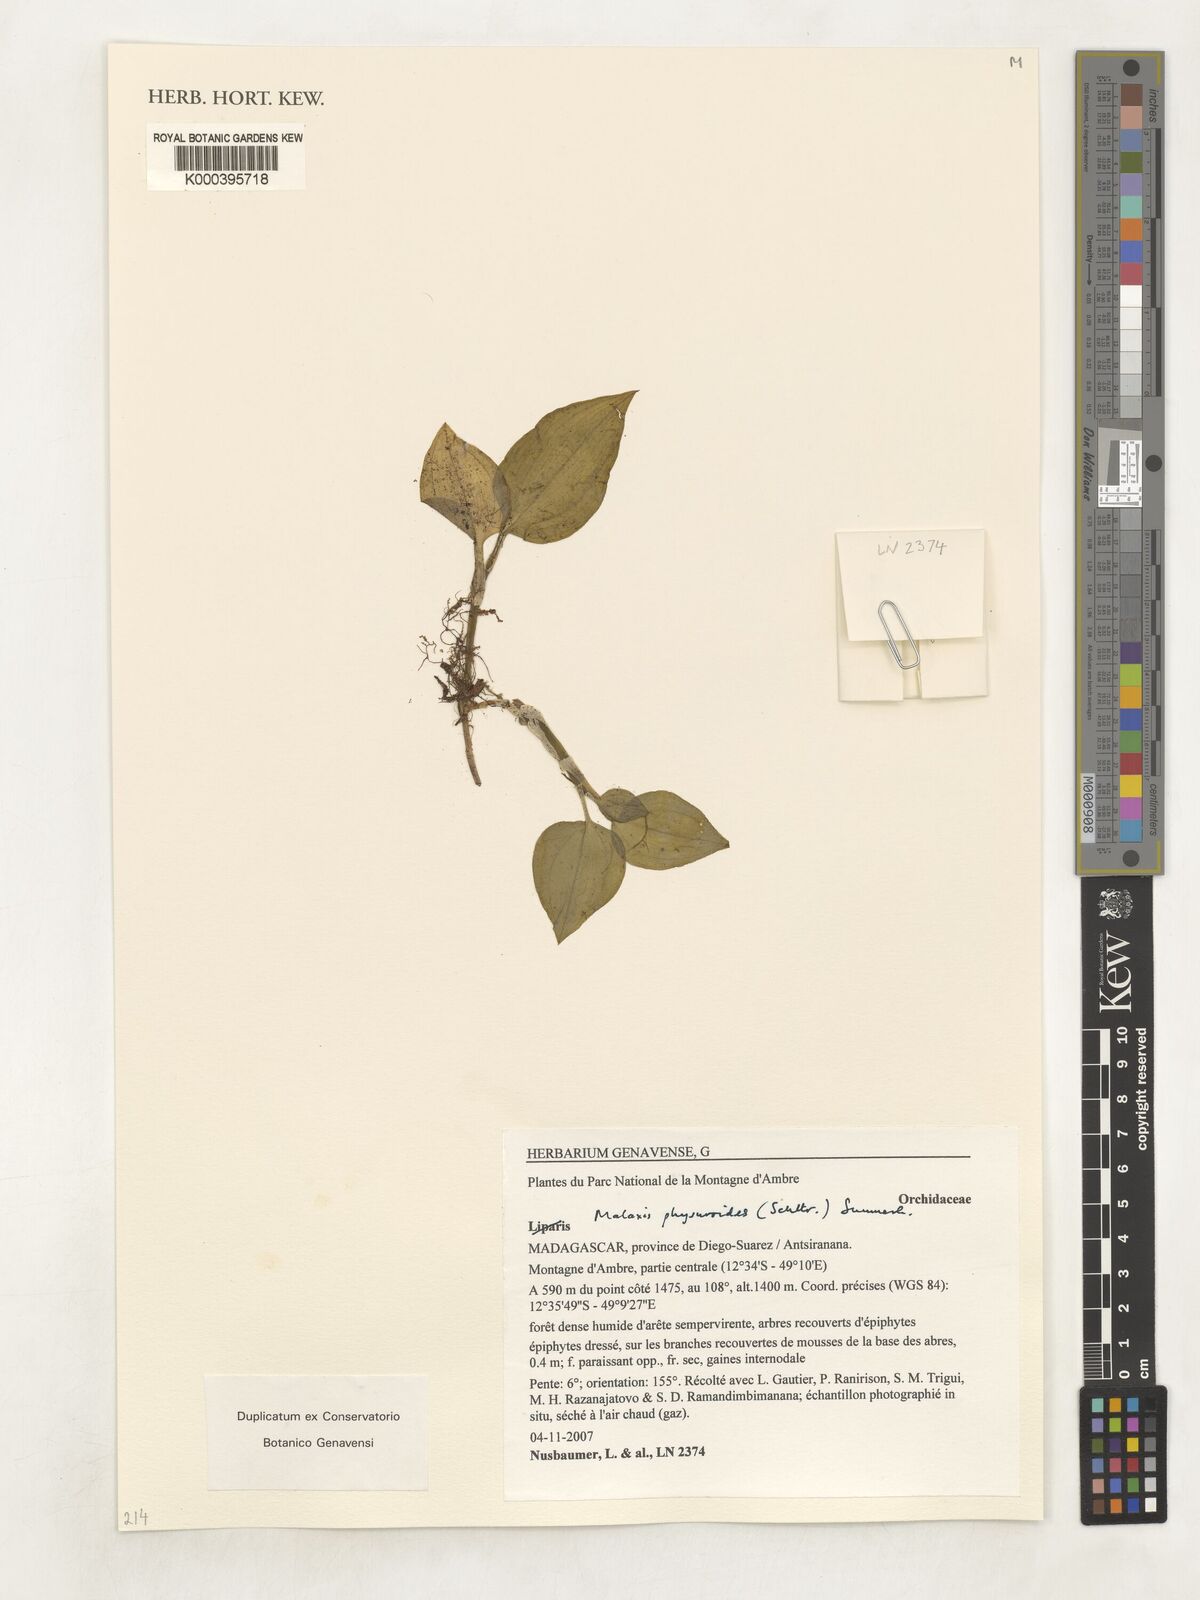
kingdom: Plantae
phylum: Tracheophyta
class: Liliopsida
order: Asparagales
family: Orchidaceae
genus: Malaxis
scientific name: Malaxis physuroides
